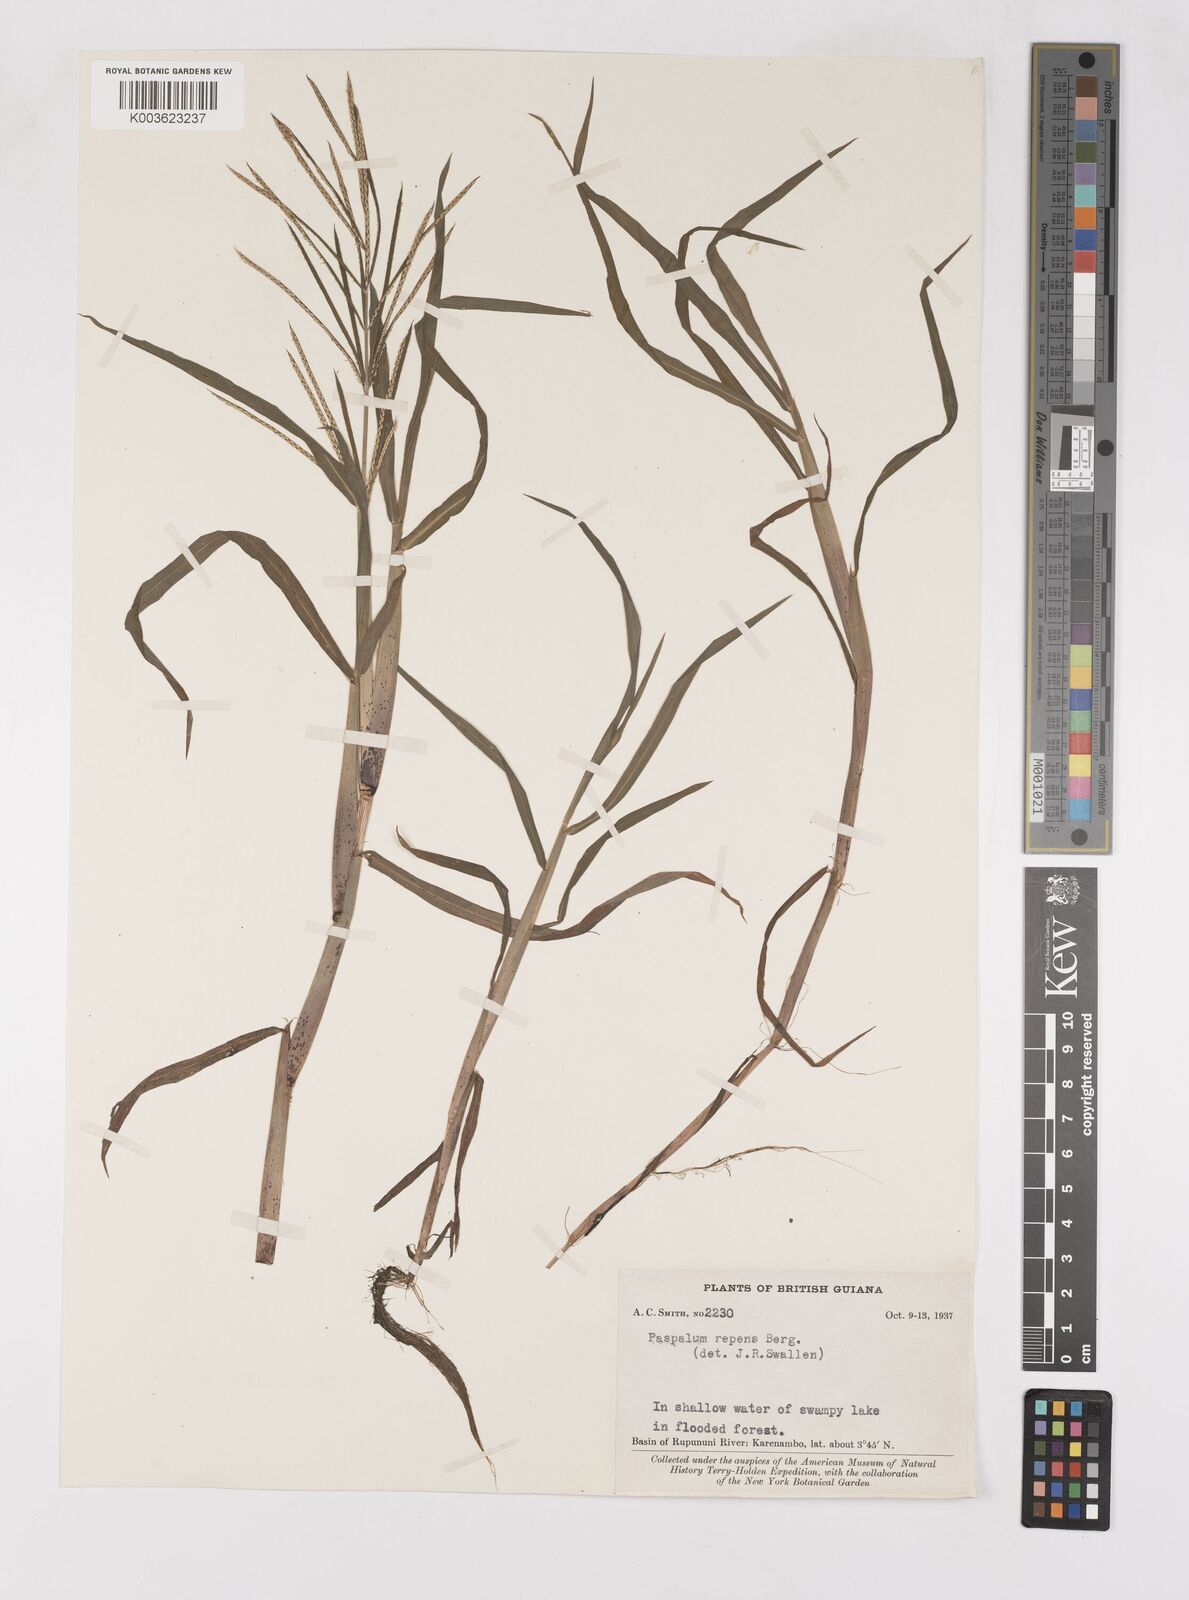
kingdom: Plantae
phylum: Tracheophyta
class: Liliopsida
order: Poales
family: Poaceae
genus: Paspalum
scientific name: Paspalum repens
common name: Water paspalum
